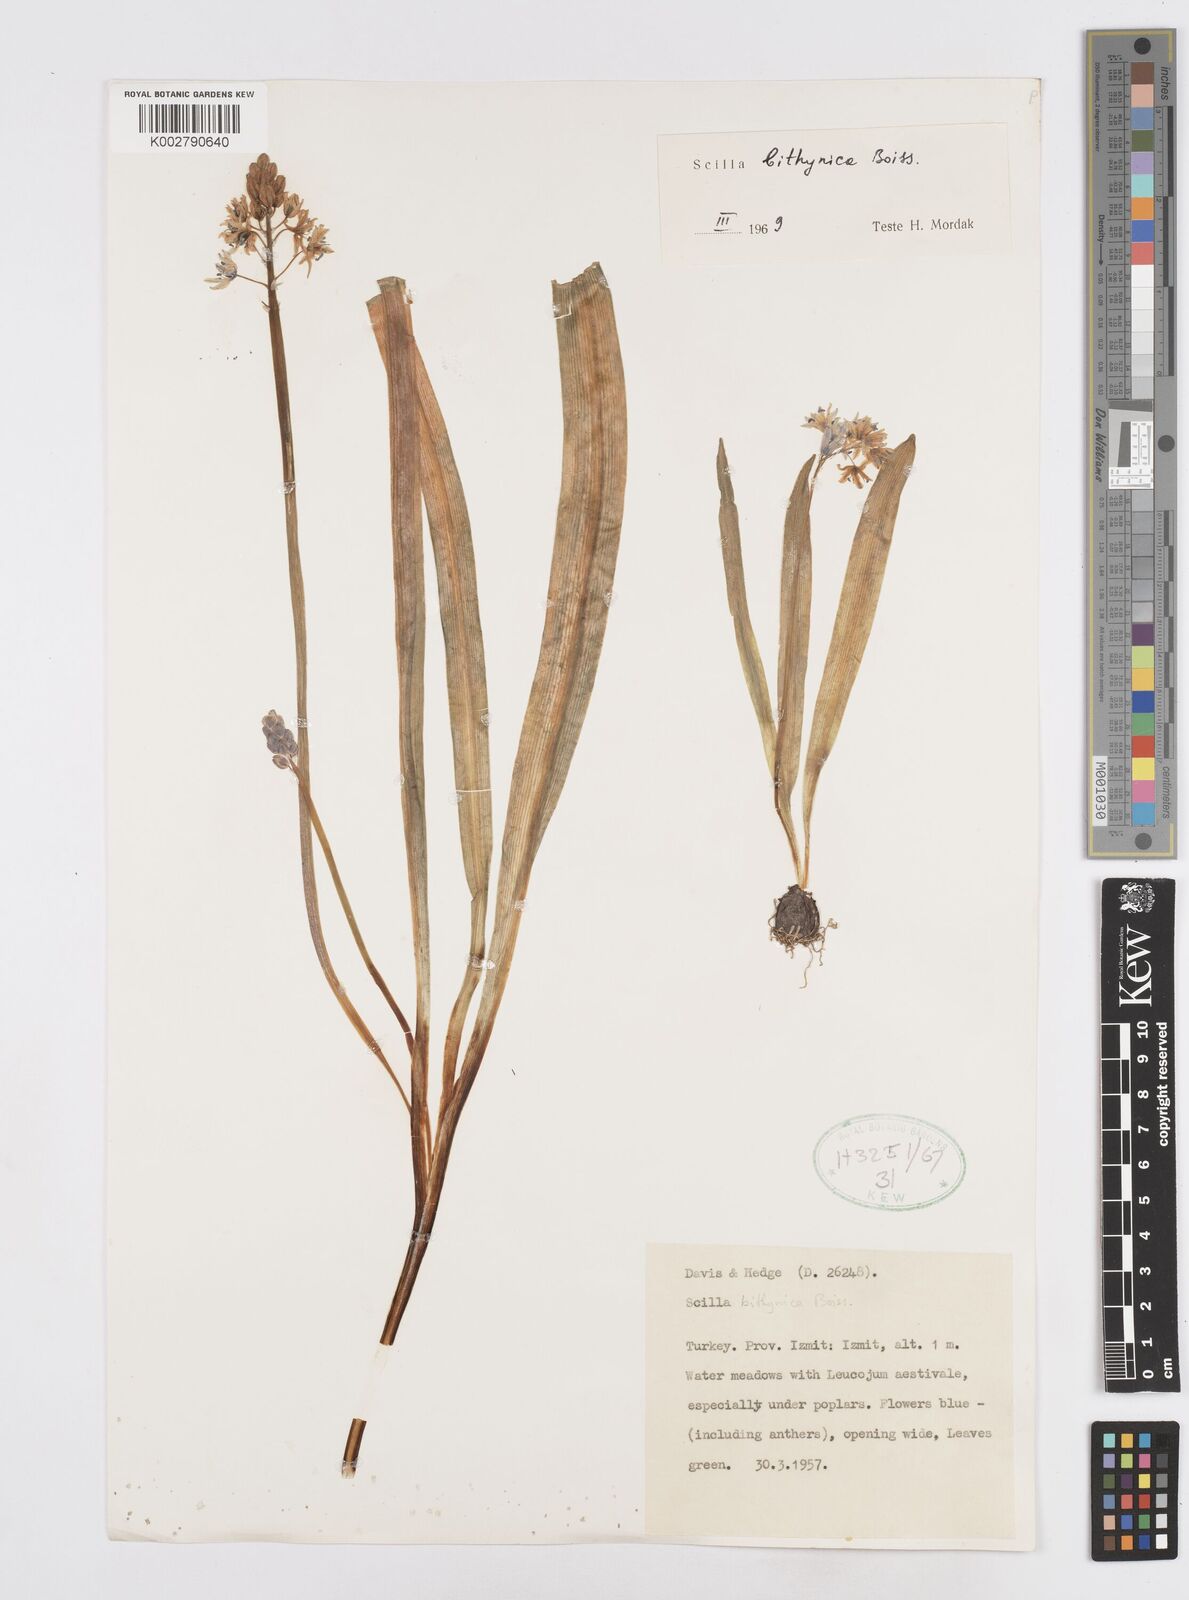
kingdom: Plantae
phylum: Tracheophyta
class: Liliopsida
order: Asparagales
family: Asparagaceae
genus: Scilla
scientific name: Scilla bithynica
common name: Turkish squill
